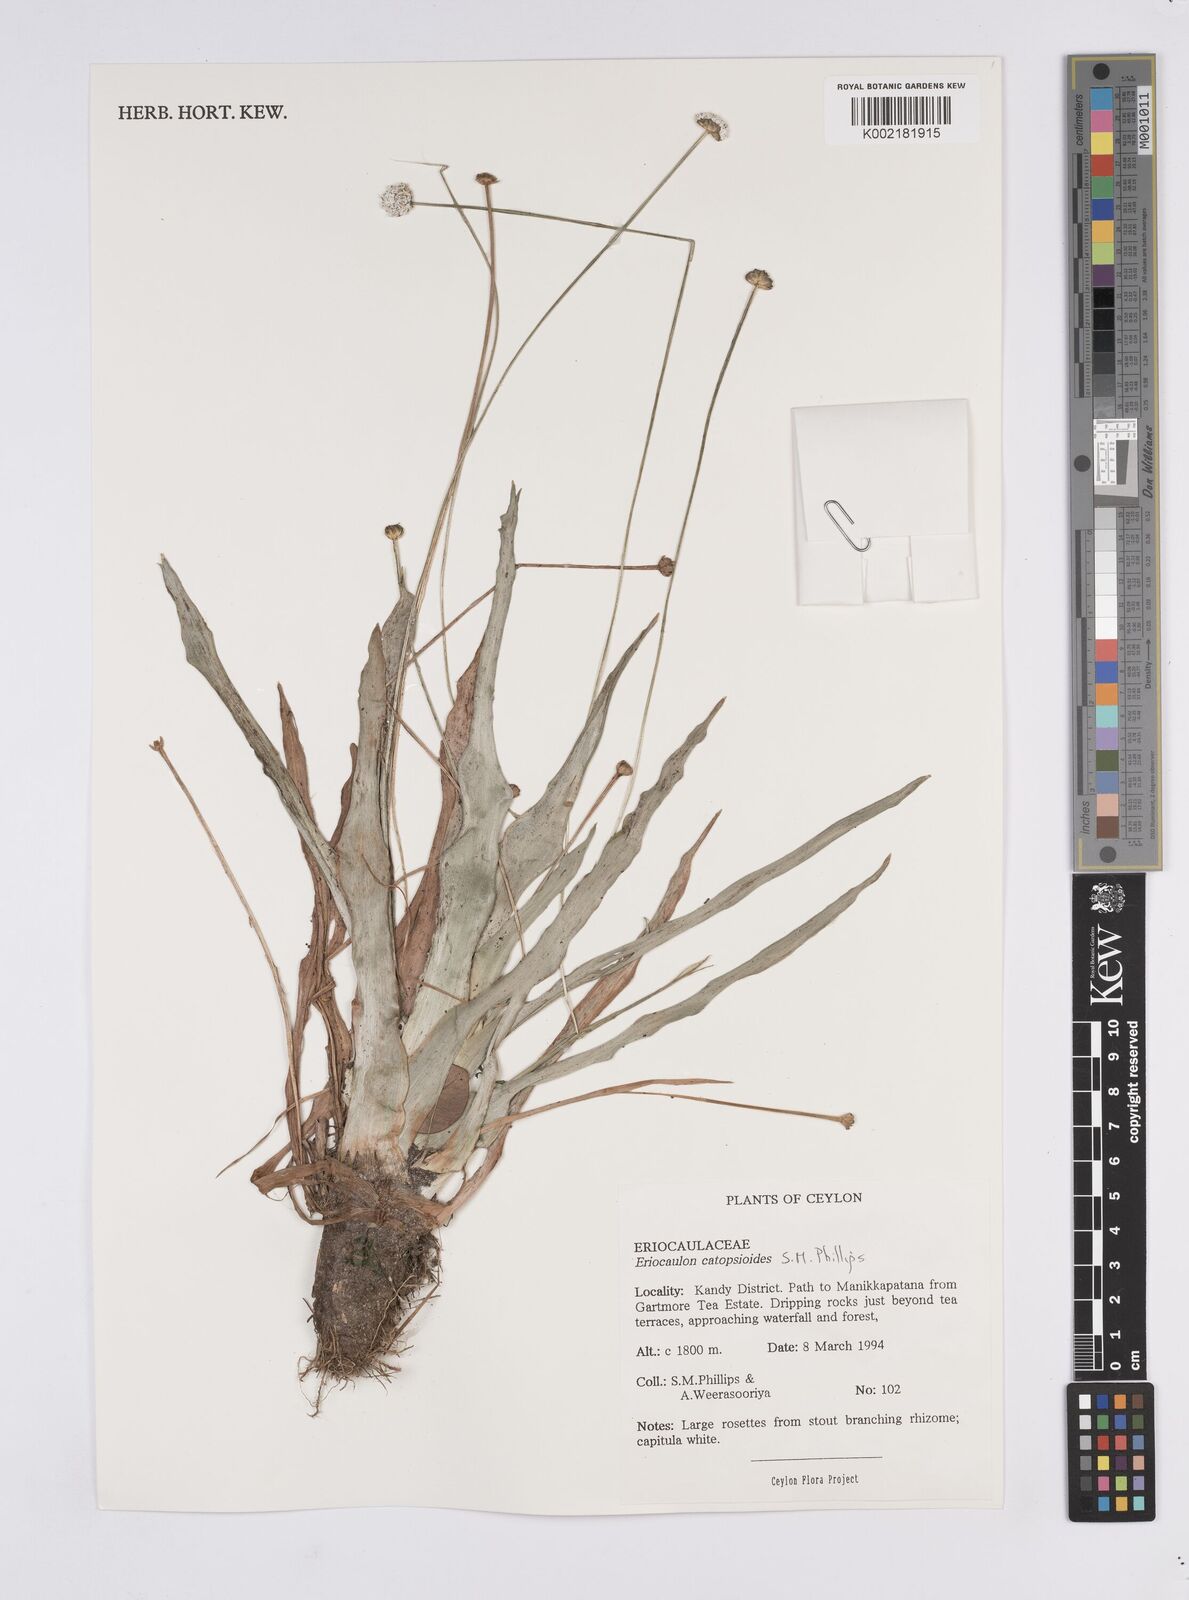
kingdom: Plantae
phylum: Tracheophyta
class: Liliopsida
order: Poales
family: Eriocaulaceae
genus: Eriocaulon
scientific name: Eriocaulon catopsioides
